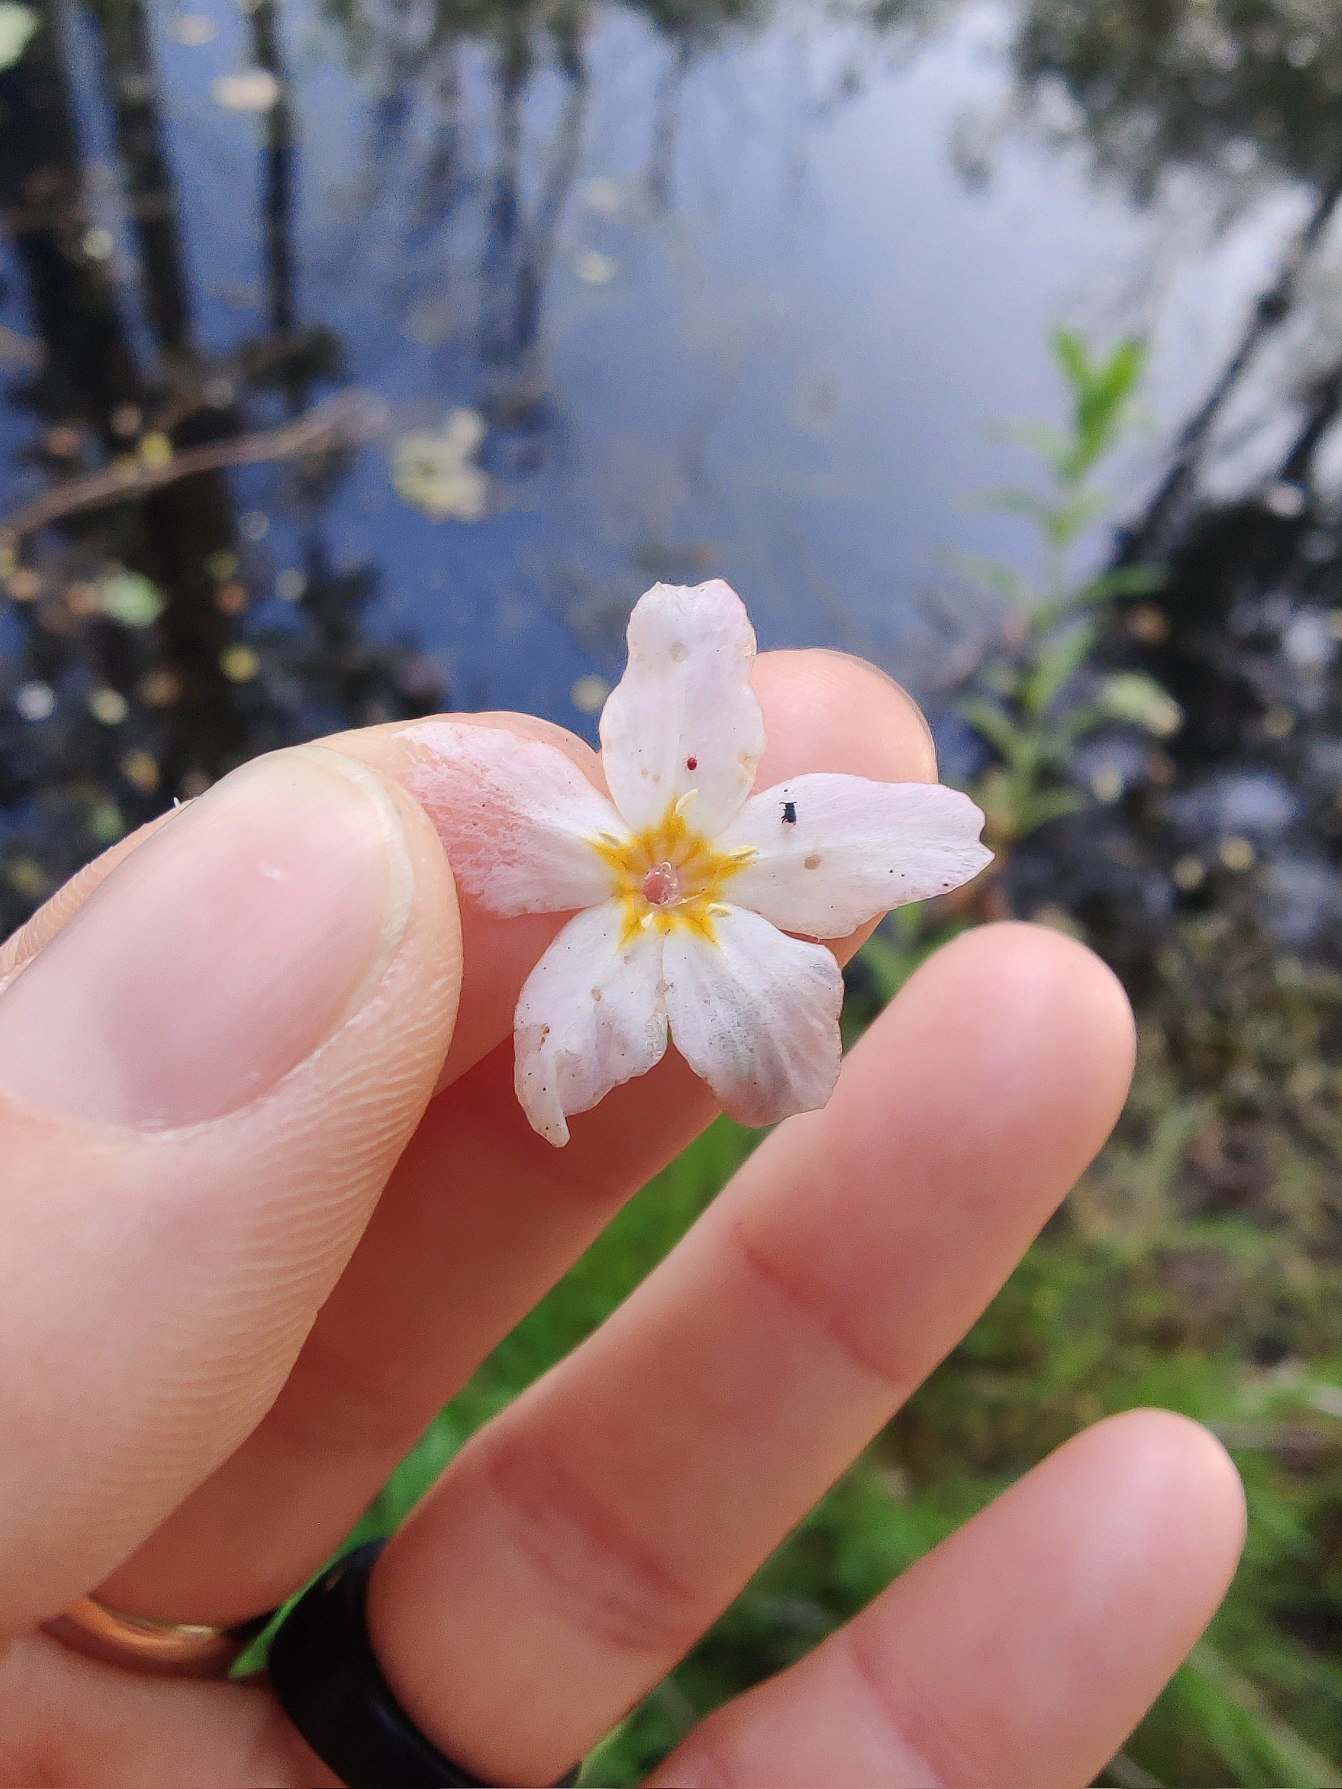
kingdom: Plantae
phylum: Tracheophyta
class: Magnoliopsida
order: Ericales
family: Primulaceae
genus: Hottonia
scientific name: Hottonia palustris
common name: Vandrøllike
